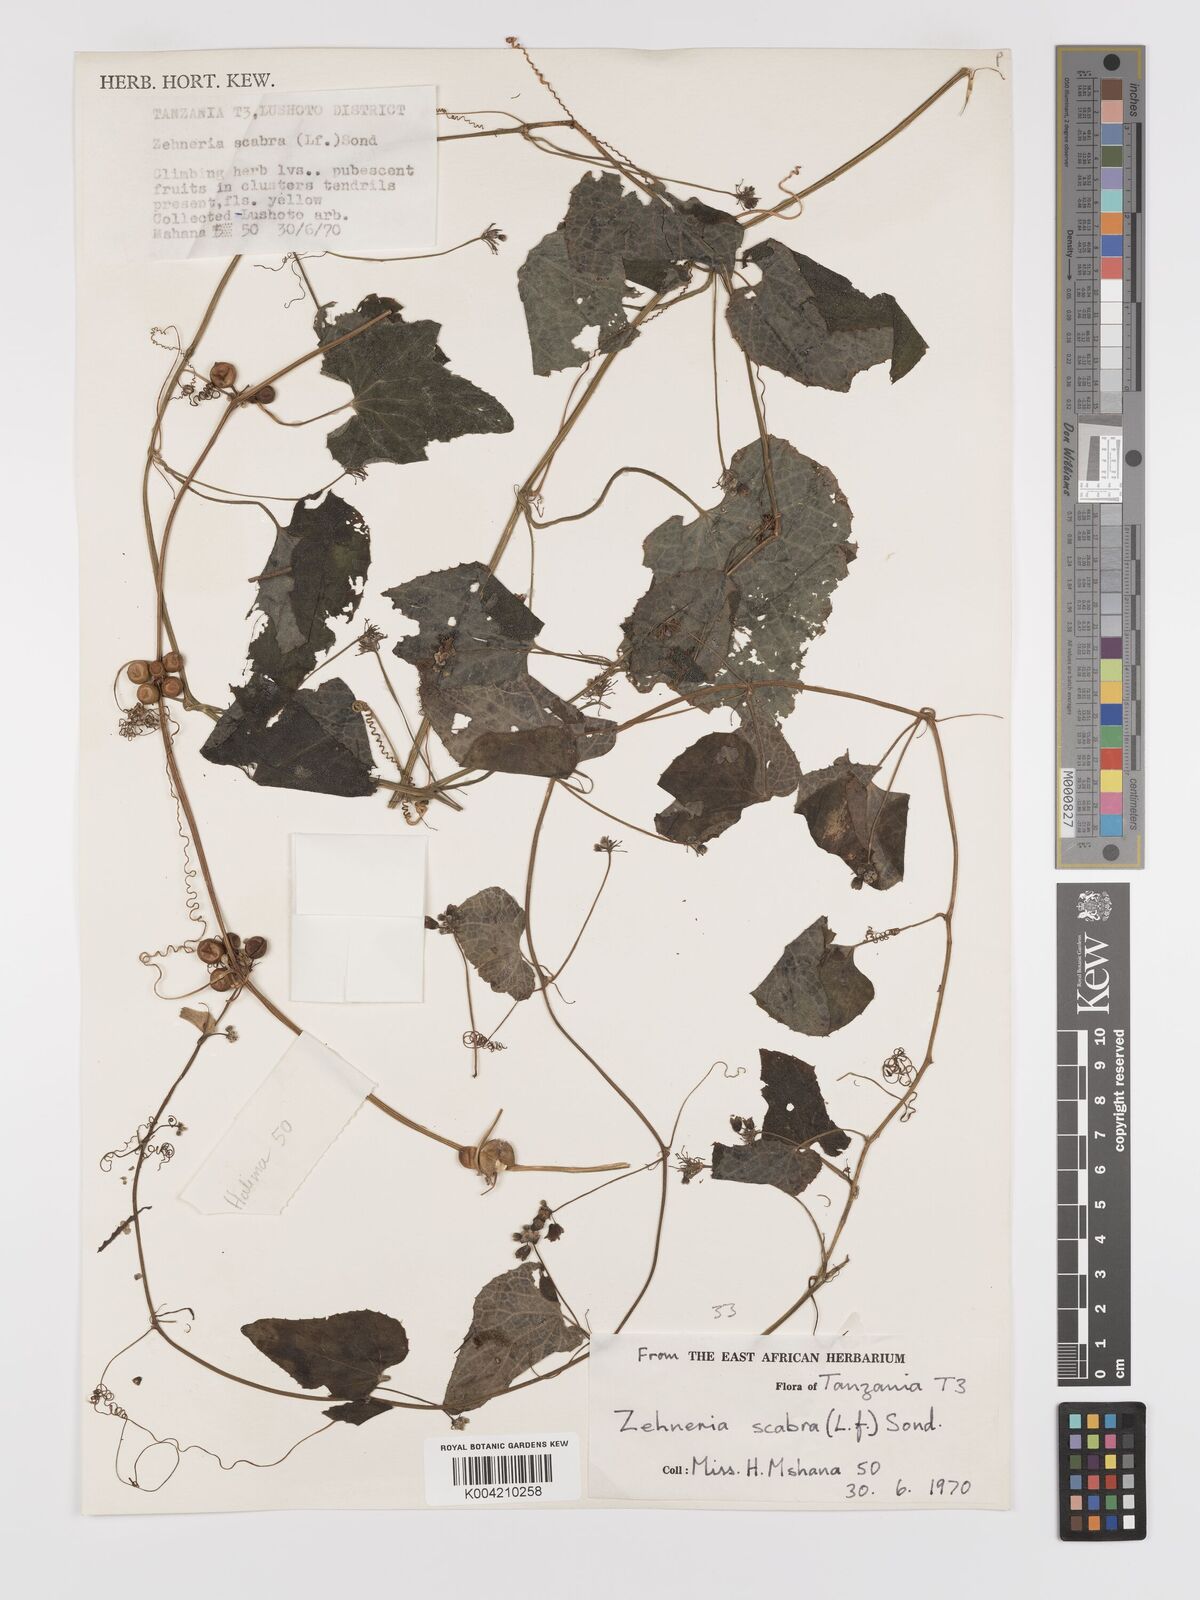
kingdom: Plantae
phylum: Tracheophyta
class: Magnoliopsida
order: Cucurbitales
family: Cucurbitaceae
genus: Zehneria
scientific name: Zehneria scabra
